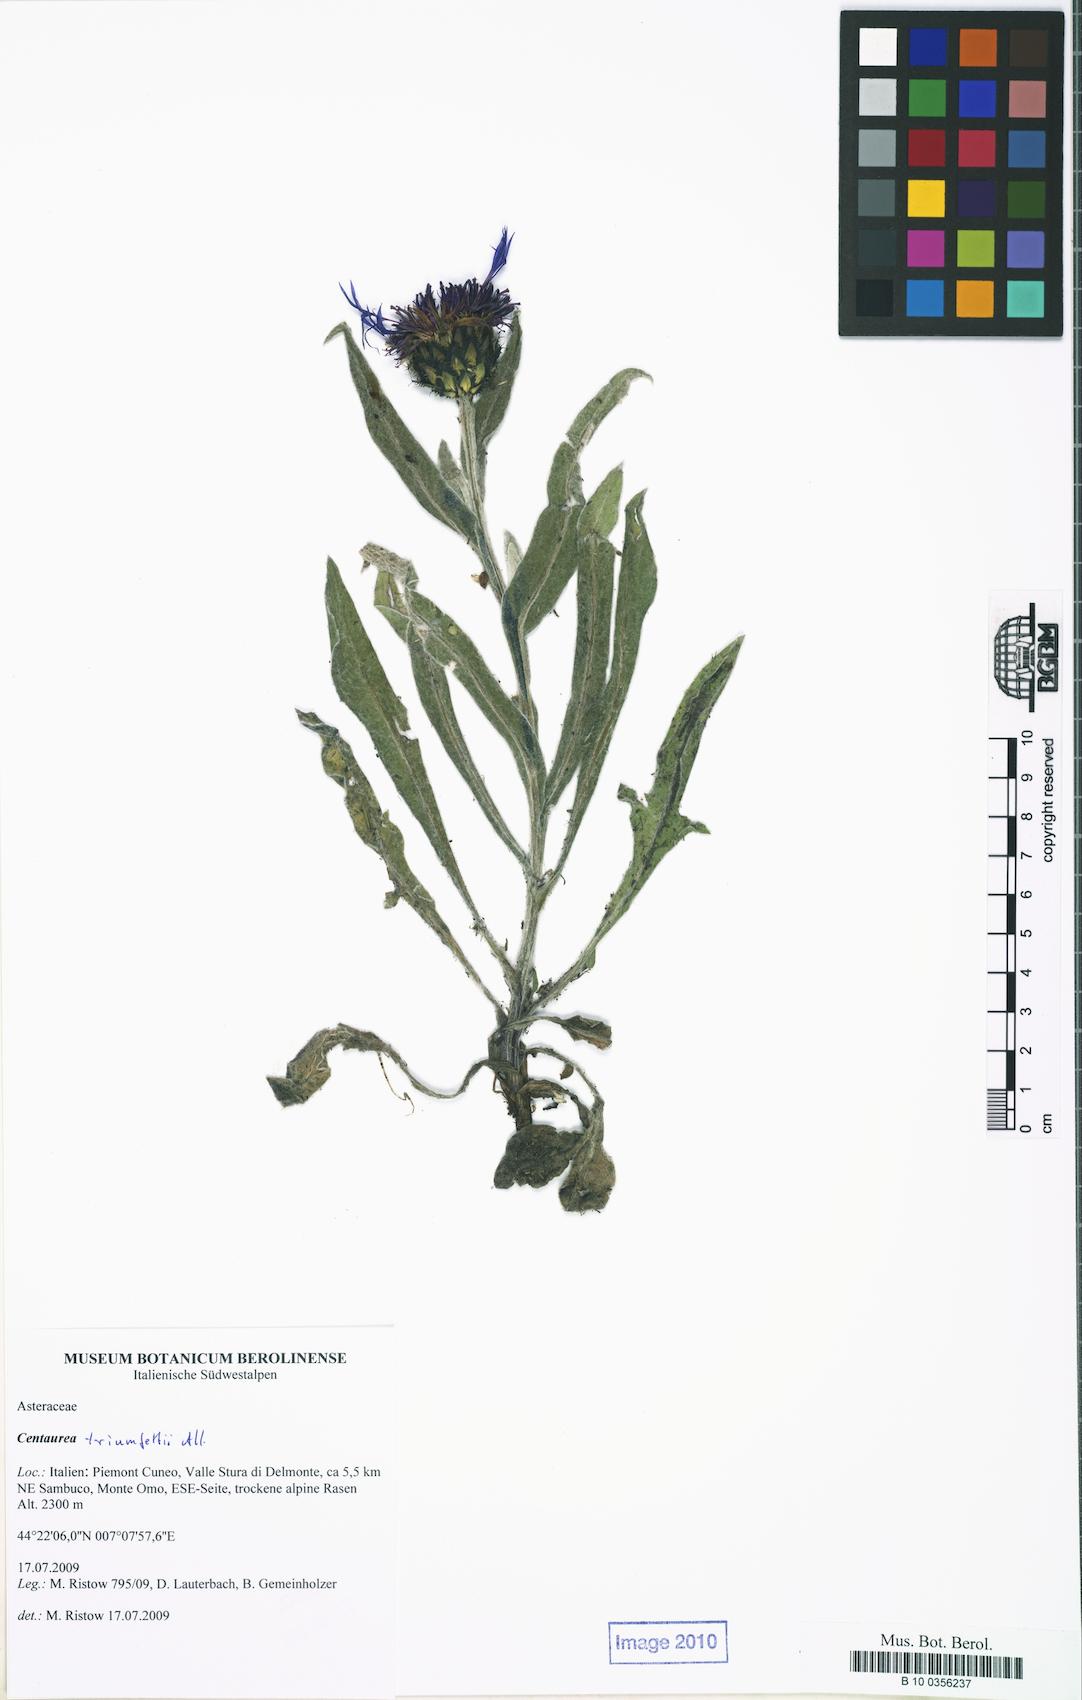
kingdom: Plantae
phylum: Tracheophyta
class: Magnoliopsida
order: Asterales
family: Asteraceae
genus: Centaurea
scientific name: Centaurea triumfettii
